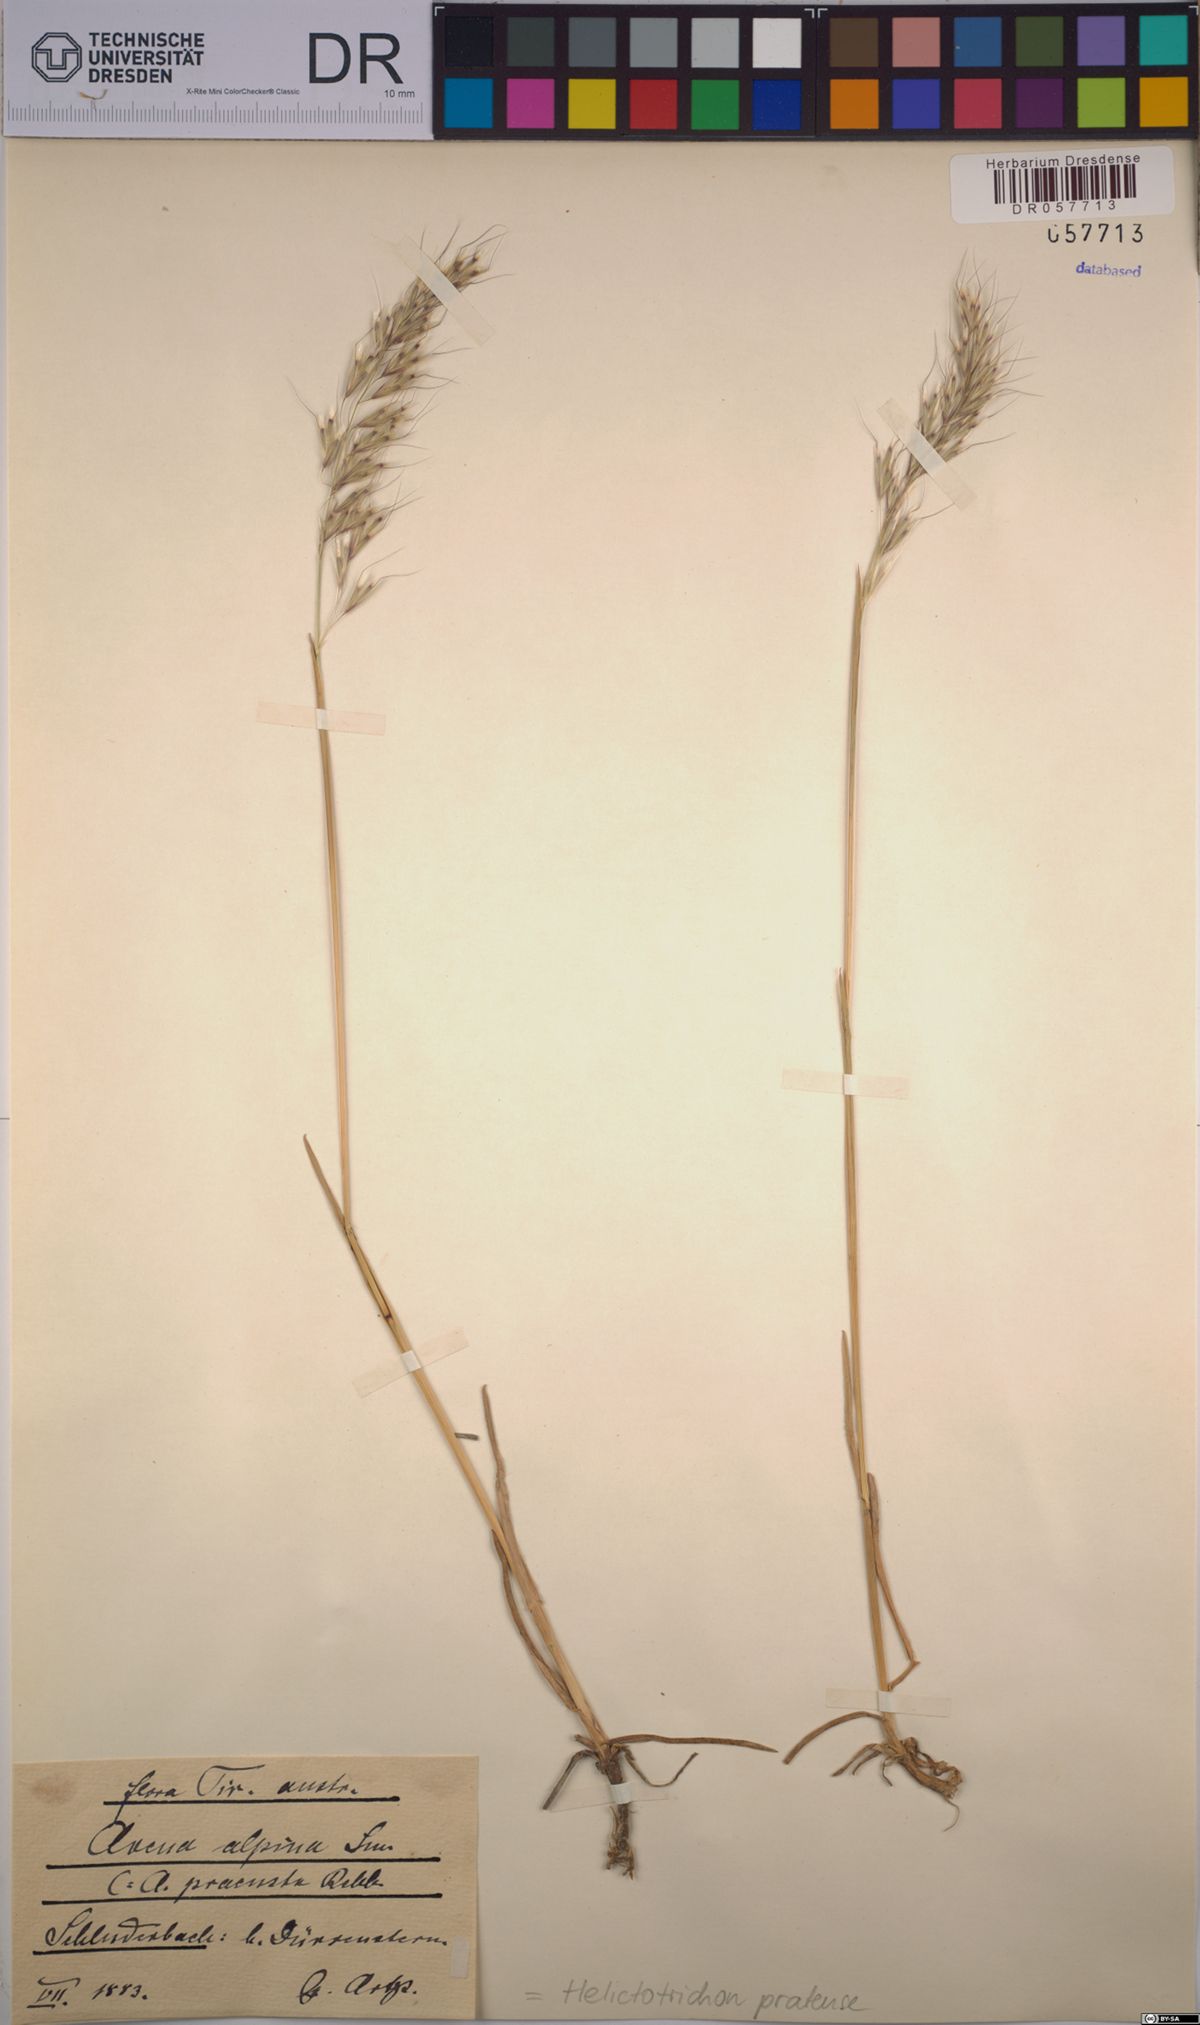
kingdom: Plantae
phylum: Tracheophyta
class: Liliopsida
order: Poales
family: Poaceae
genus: Helictochloa
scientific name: Helictochloa pratensis
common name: Meadow oat grass
